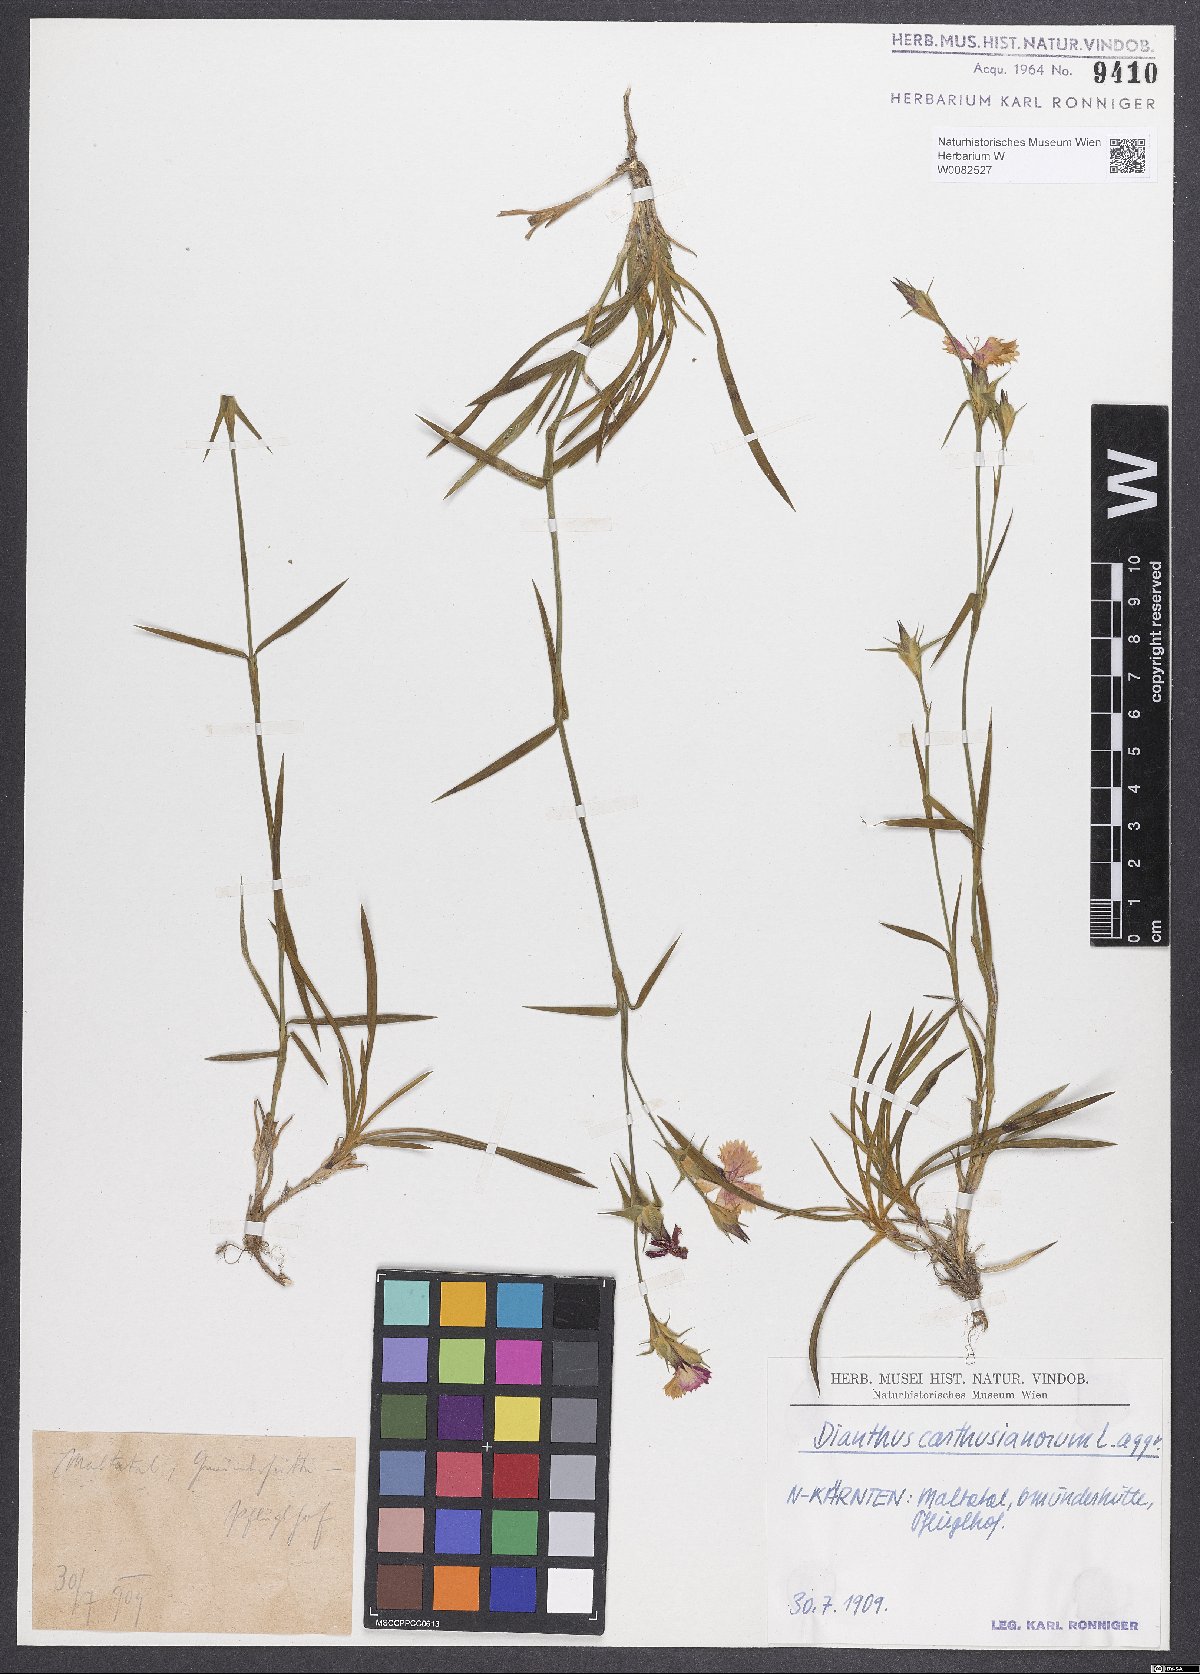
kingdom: Plantae
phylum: Tracheophyta
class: Magnoliopsida
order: Caryophyllales
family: Caryophyllaceae
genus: Dianthus
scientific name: Dianthus carthusianorum
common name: Carthusian pink
